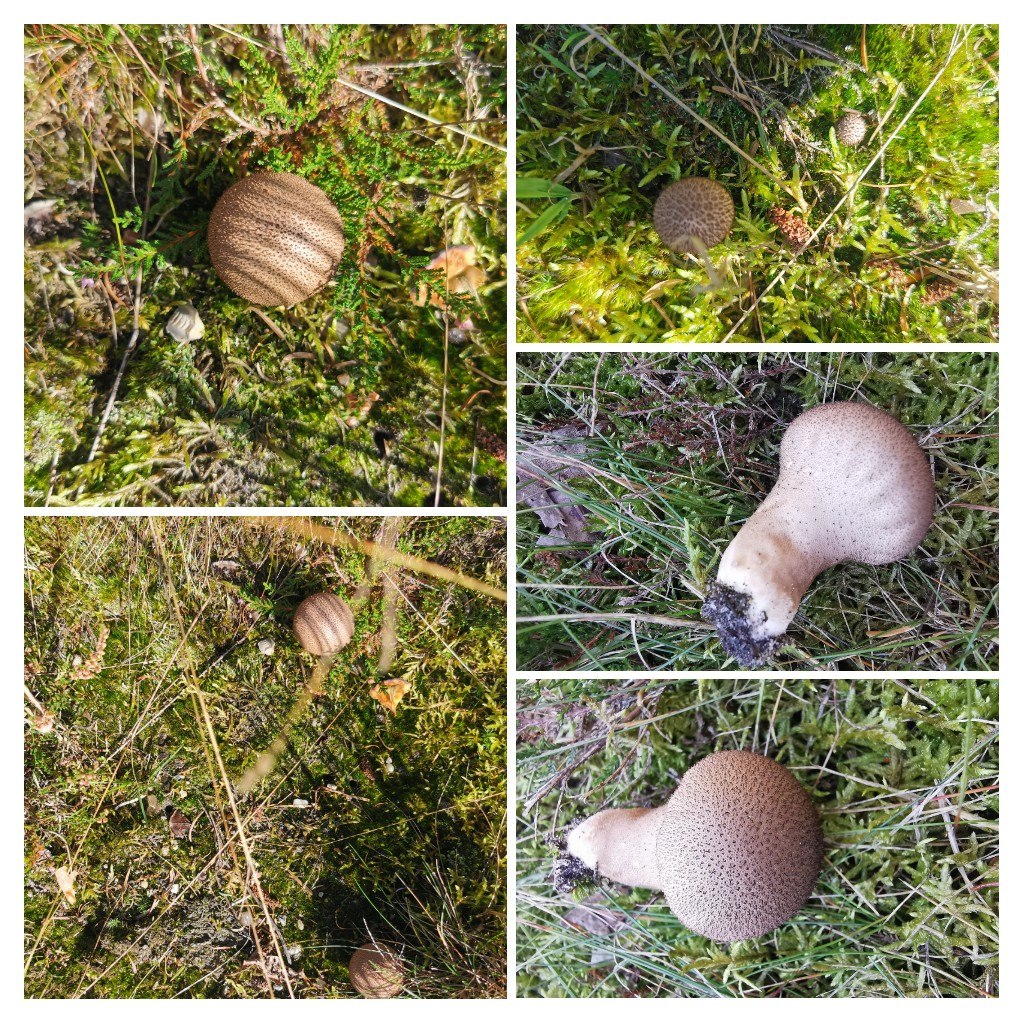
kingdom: Fungi
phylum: Basidiomycota
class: Agaricomycetes
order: Agaricales
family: Lycoperdaceae
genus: Lycoperdon
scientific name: Lycoperdon excipuliforme
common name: højstokket støvbold
